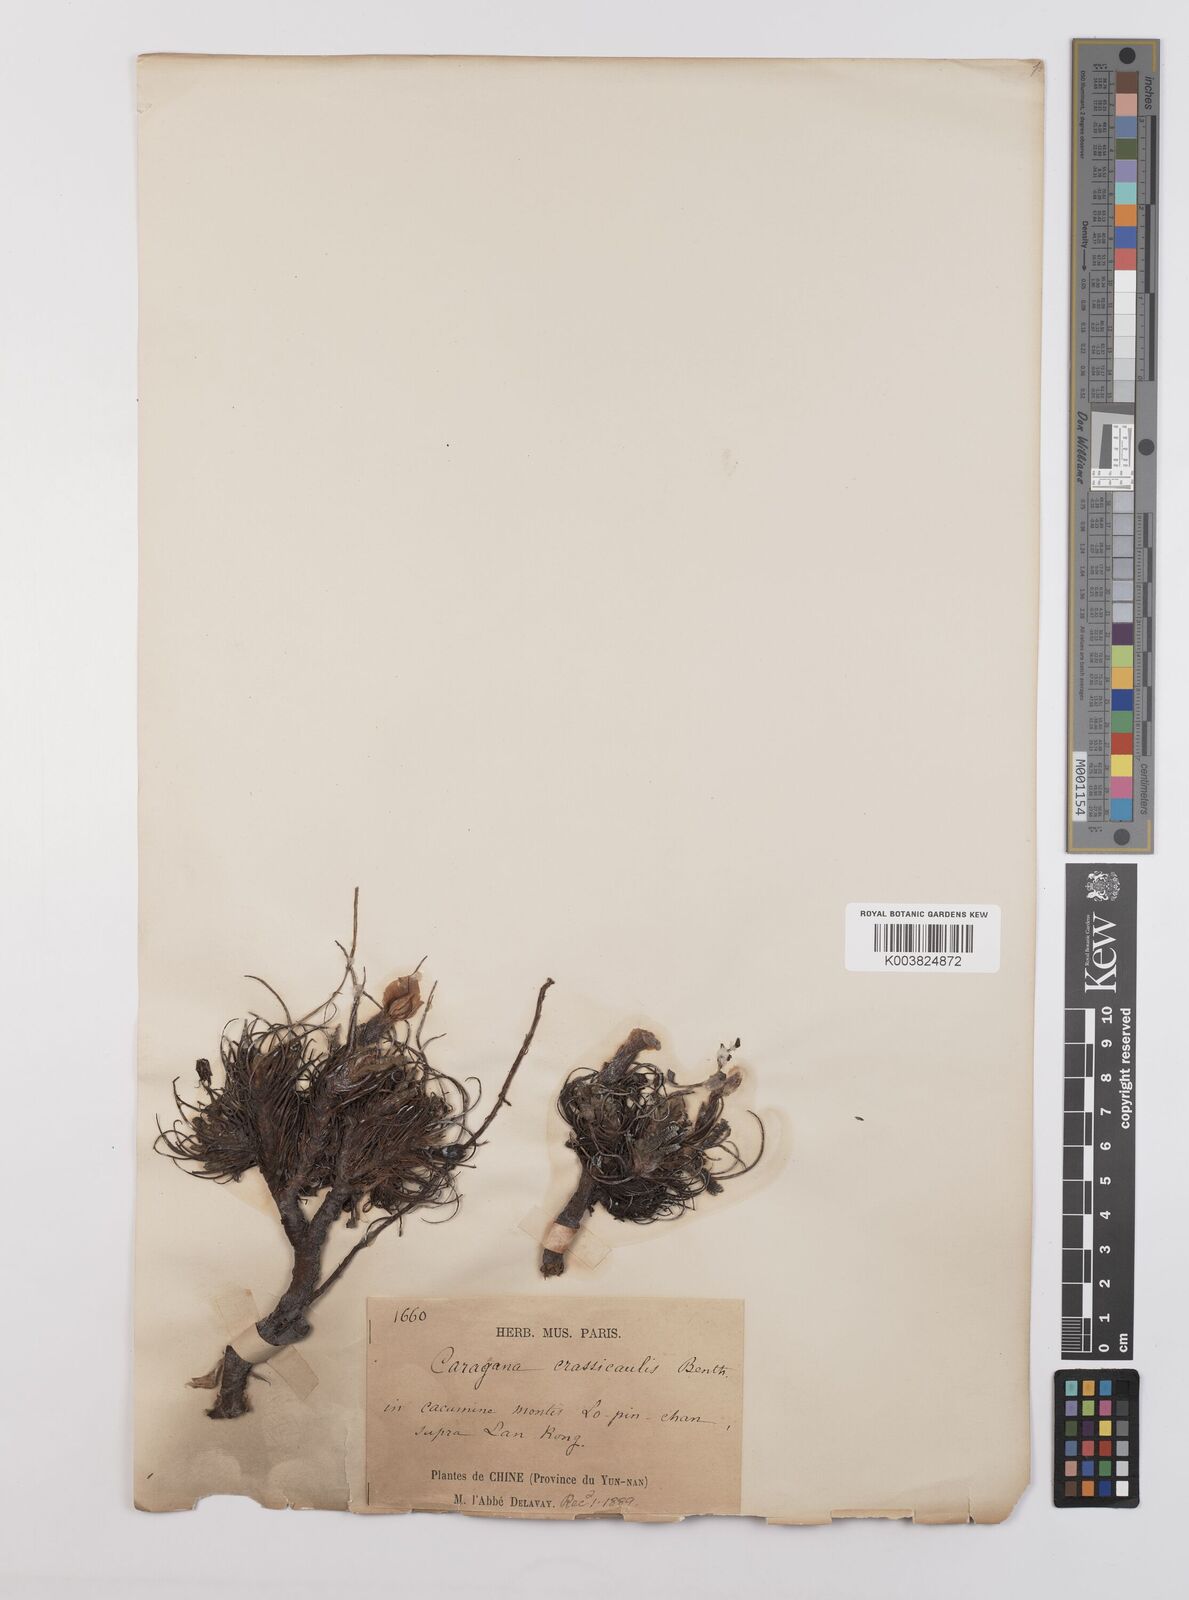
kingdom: Plantae
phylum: Tracheophyta
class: Magnoliopsida
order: Fabales
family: Fabaceae
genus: Chesneya
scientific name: Chesneya nubigena
